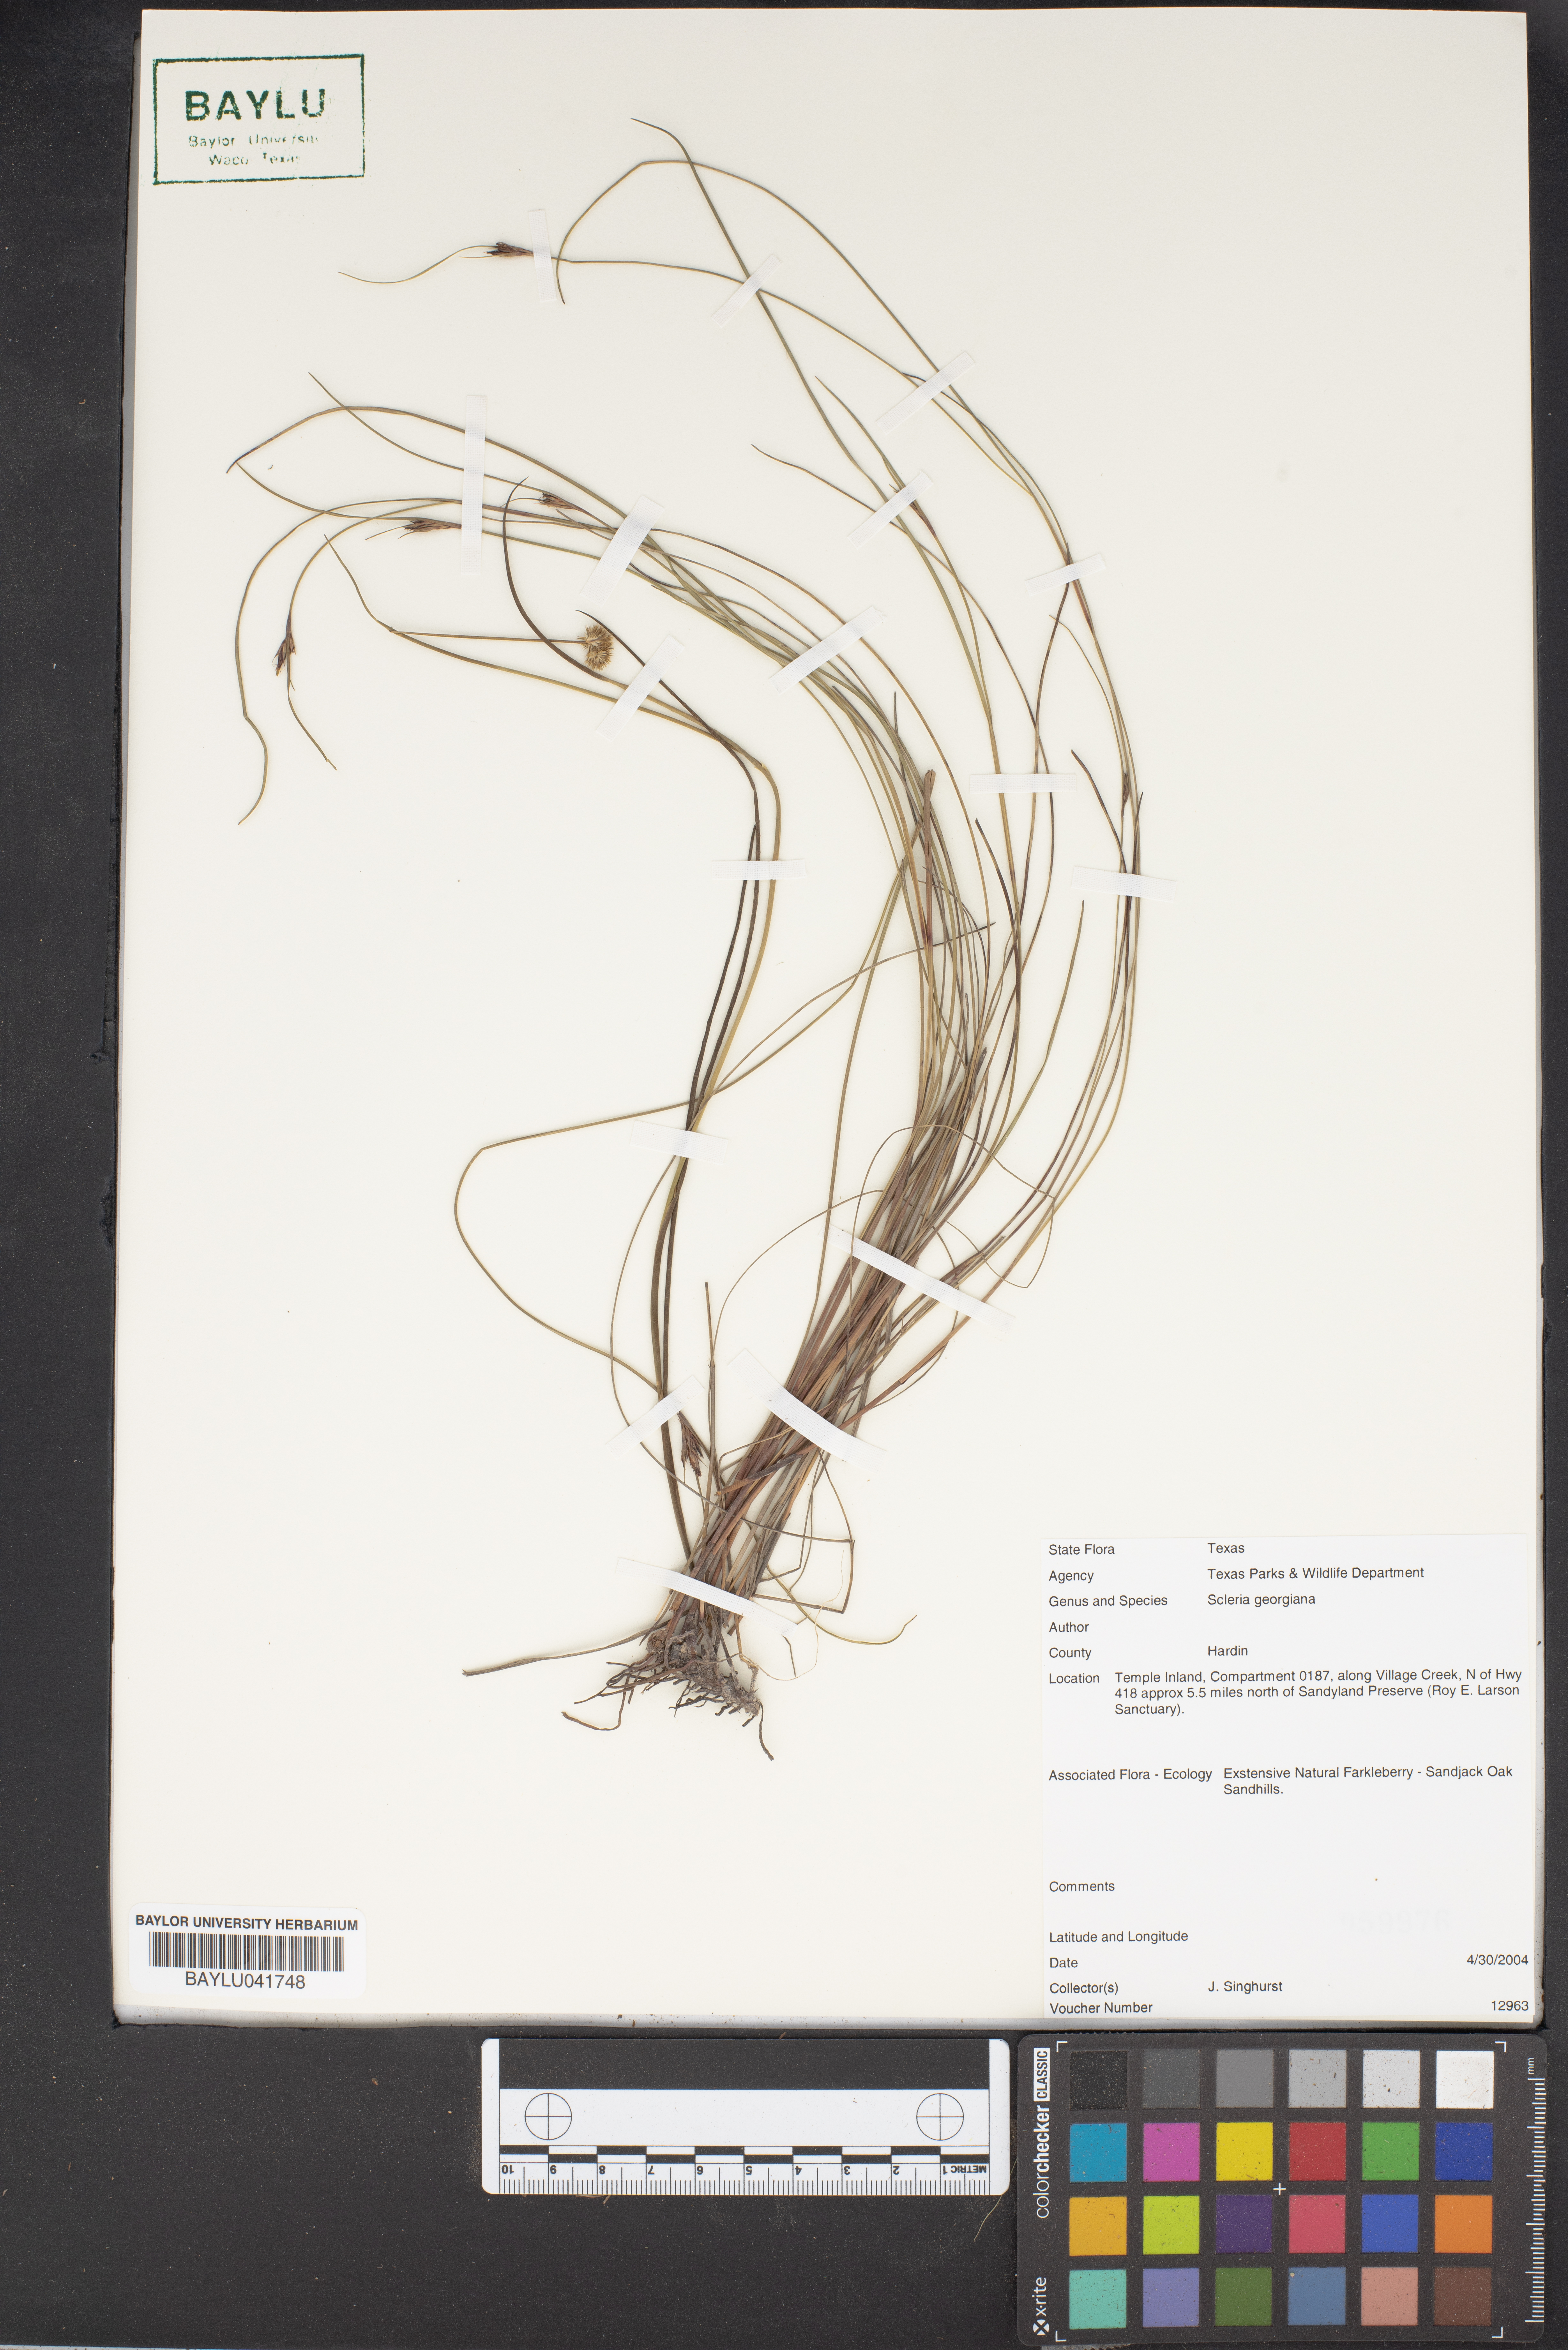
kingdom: Plantae
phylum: Tracheophyta
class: Liliopsida
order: Poales
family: Cyperaceae
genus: Scleria
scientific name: Scleria georgiana
